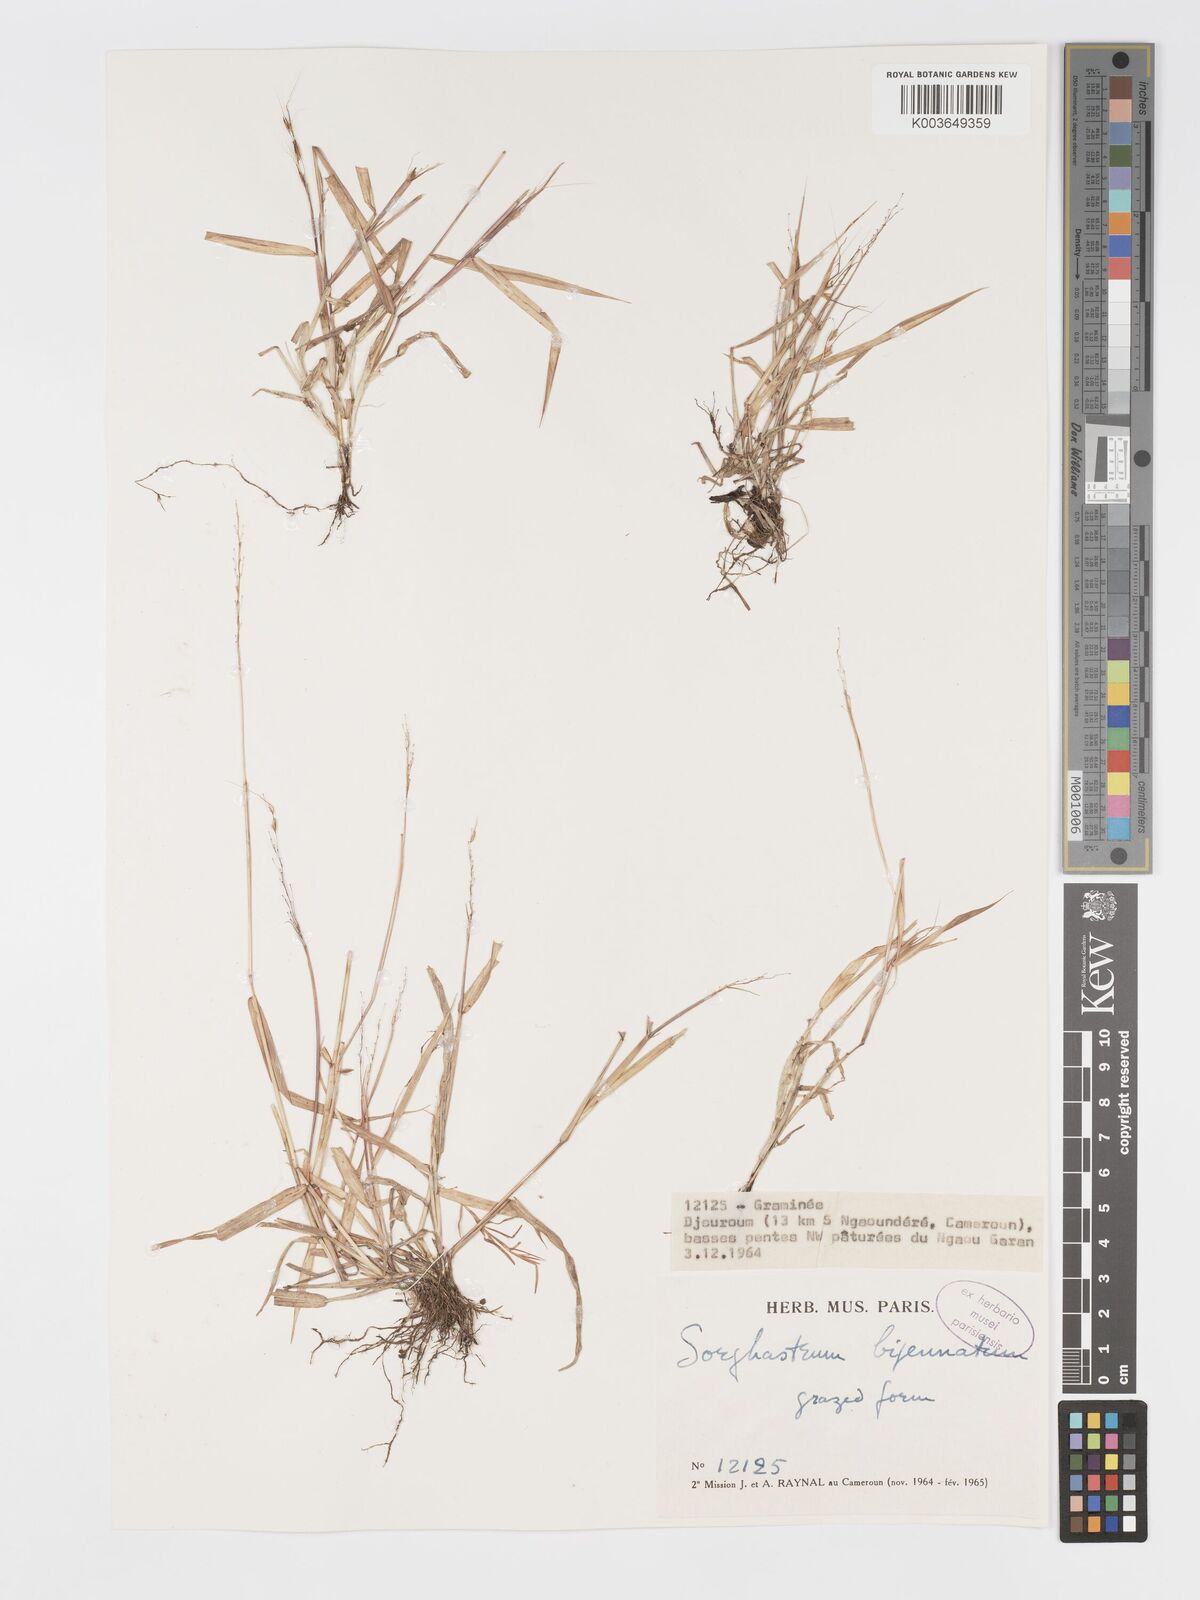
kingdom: Plantae
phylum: Tracheophyta
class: Liliopsida
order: Poales
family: Poaceae
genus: Sorghastrum
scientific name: Sorghastrum incompletum
